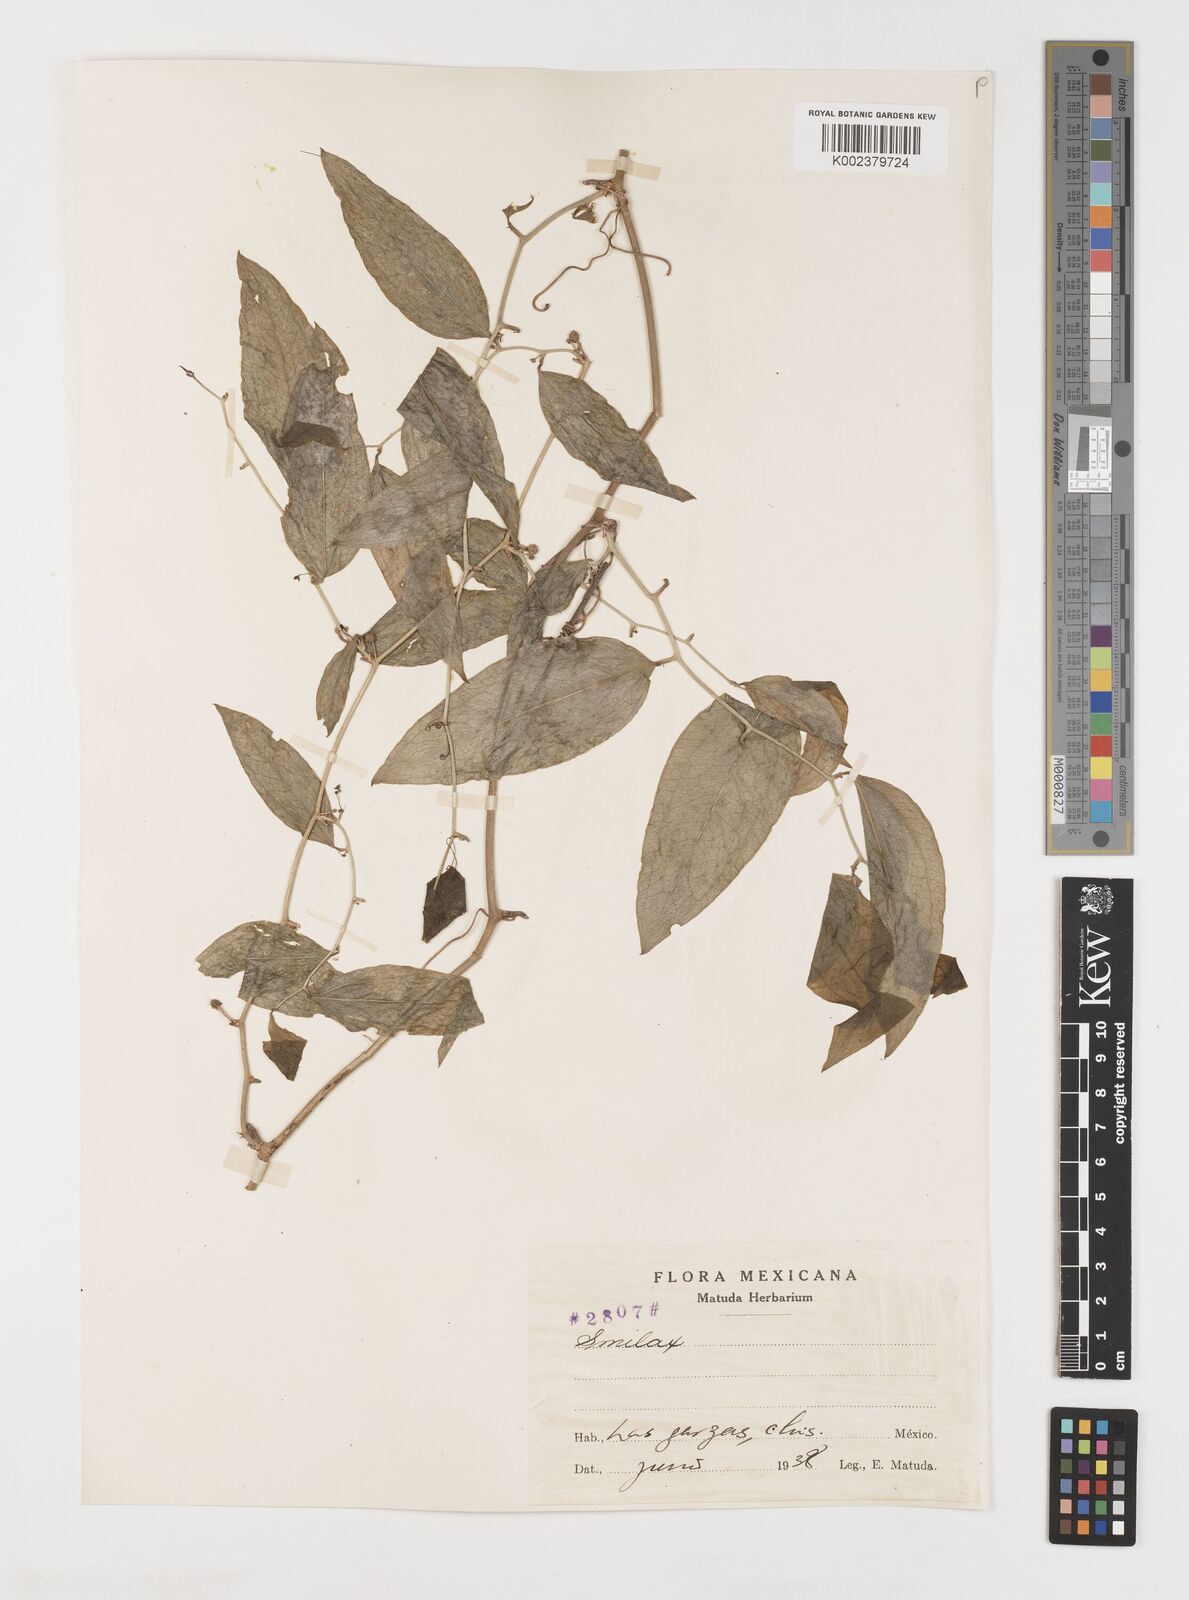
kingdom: Plantae
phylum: Tracheophyta
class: Liliopsida
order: Liliales
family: Smilacaceae
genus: Smilax
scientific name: Smilax
